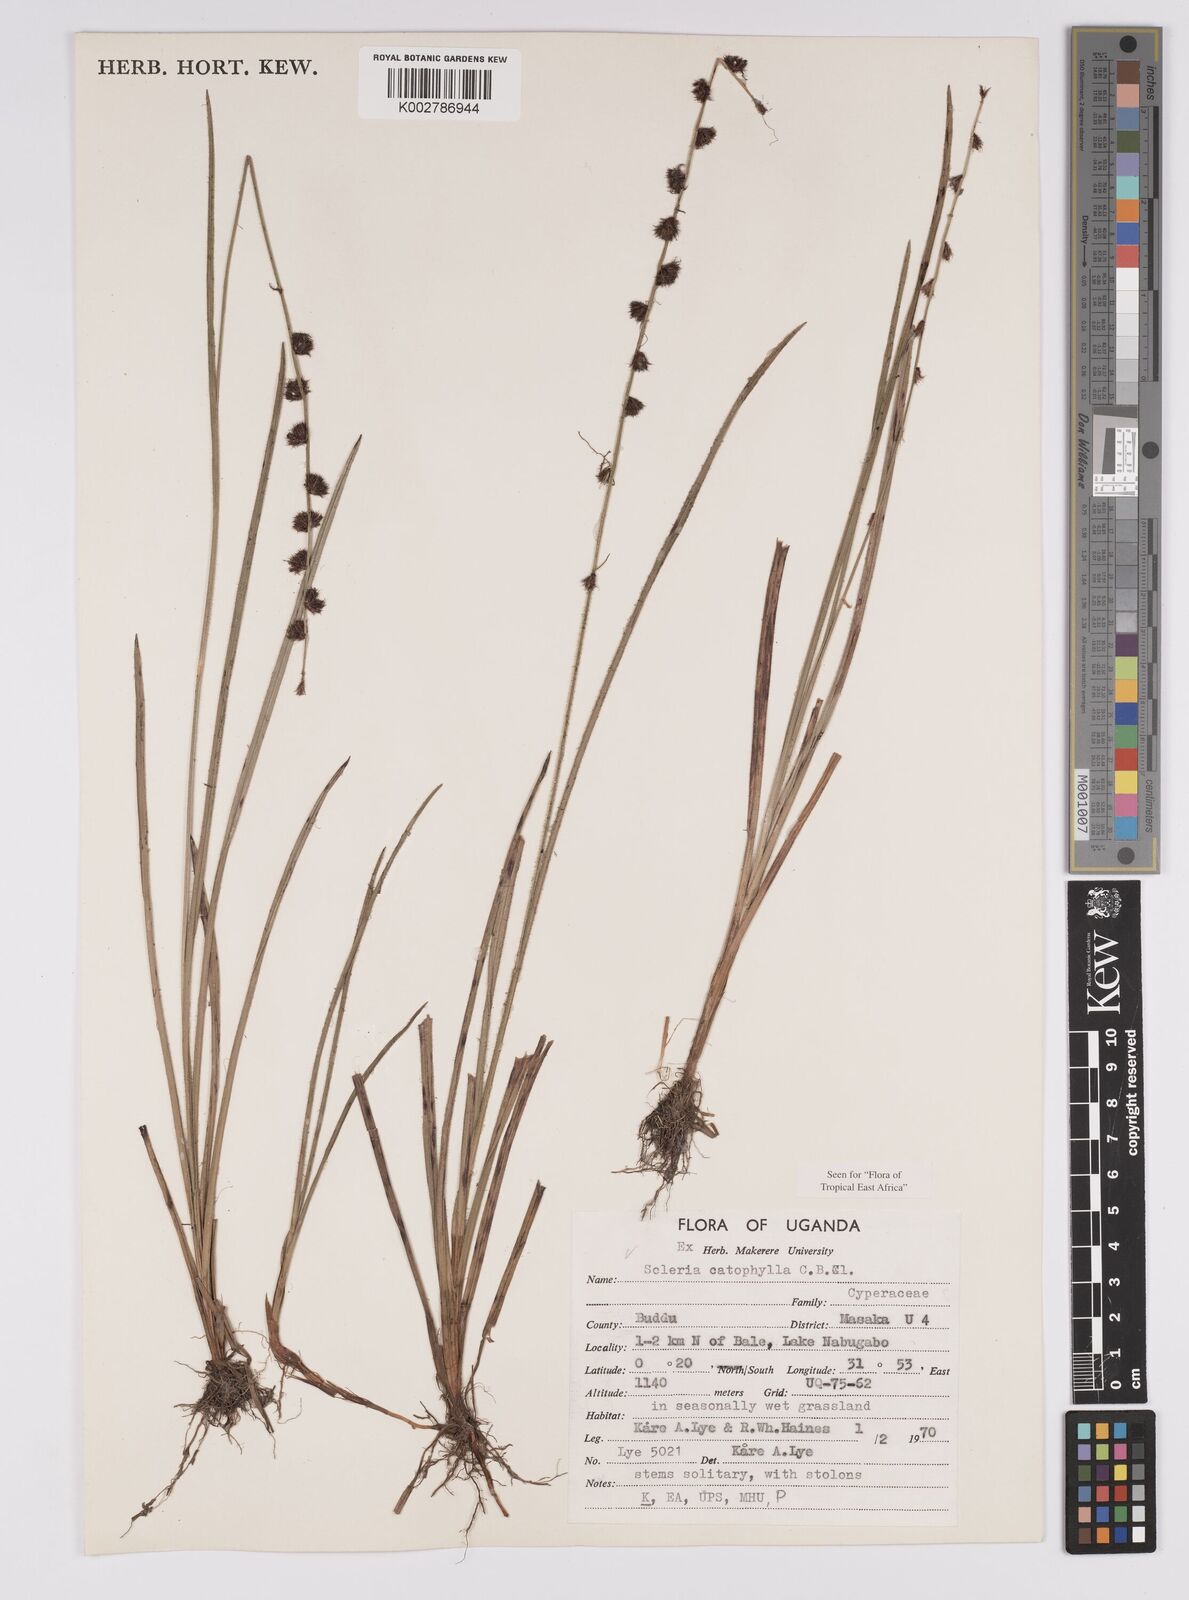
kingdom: Plantae
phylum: Tracheophyta
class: Liliopsida
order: Poales
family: Cyperaceae
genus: Scleria
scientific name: Scleria catophylla
